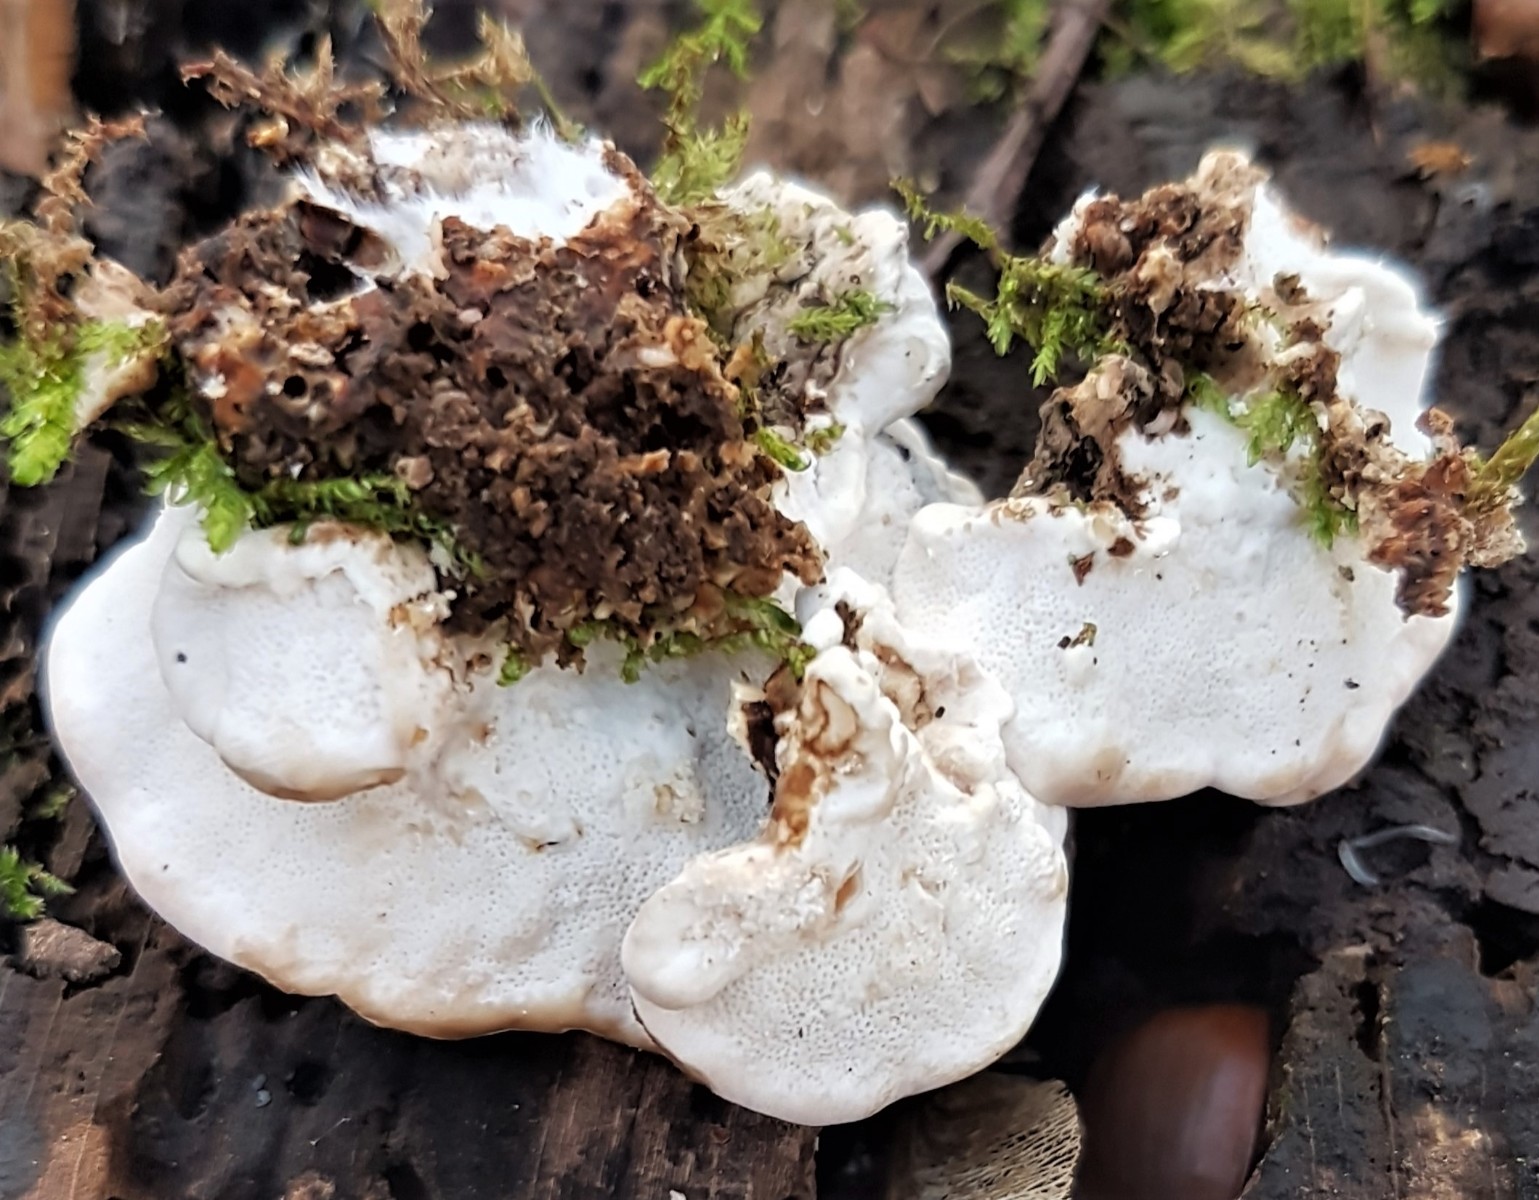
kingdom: Fungi
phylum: Basidiomycota
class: Agaricomycetes
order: Polyporales
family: Polyporaceae
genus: Trametes
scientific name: Trametes versicolor
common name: broget læderporesvamp
